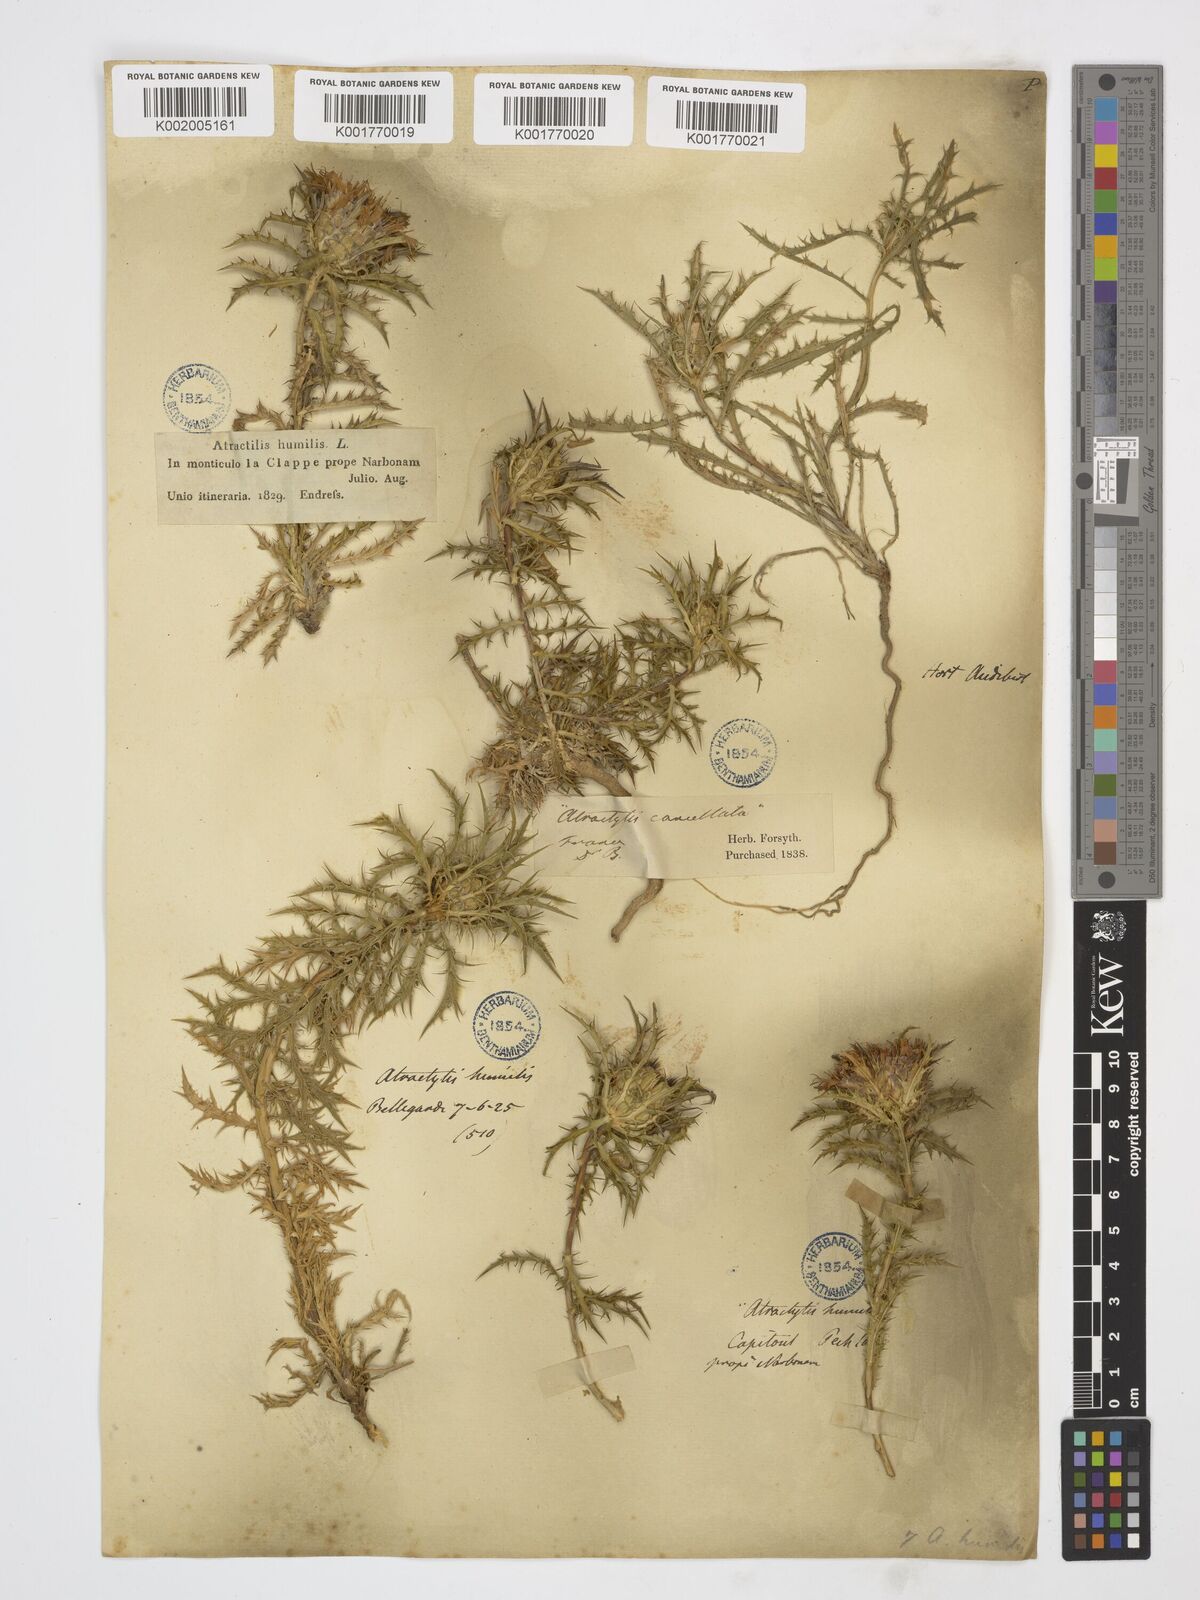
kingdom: Plantae
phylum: Tracheophyta
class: Magnoliopsida
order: Asterales
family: Asteraceae
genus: Atractylis
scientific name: Atractylis humilis
